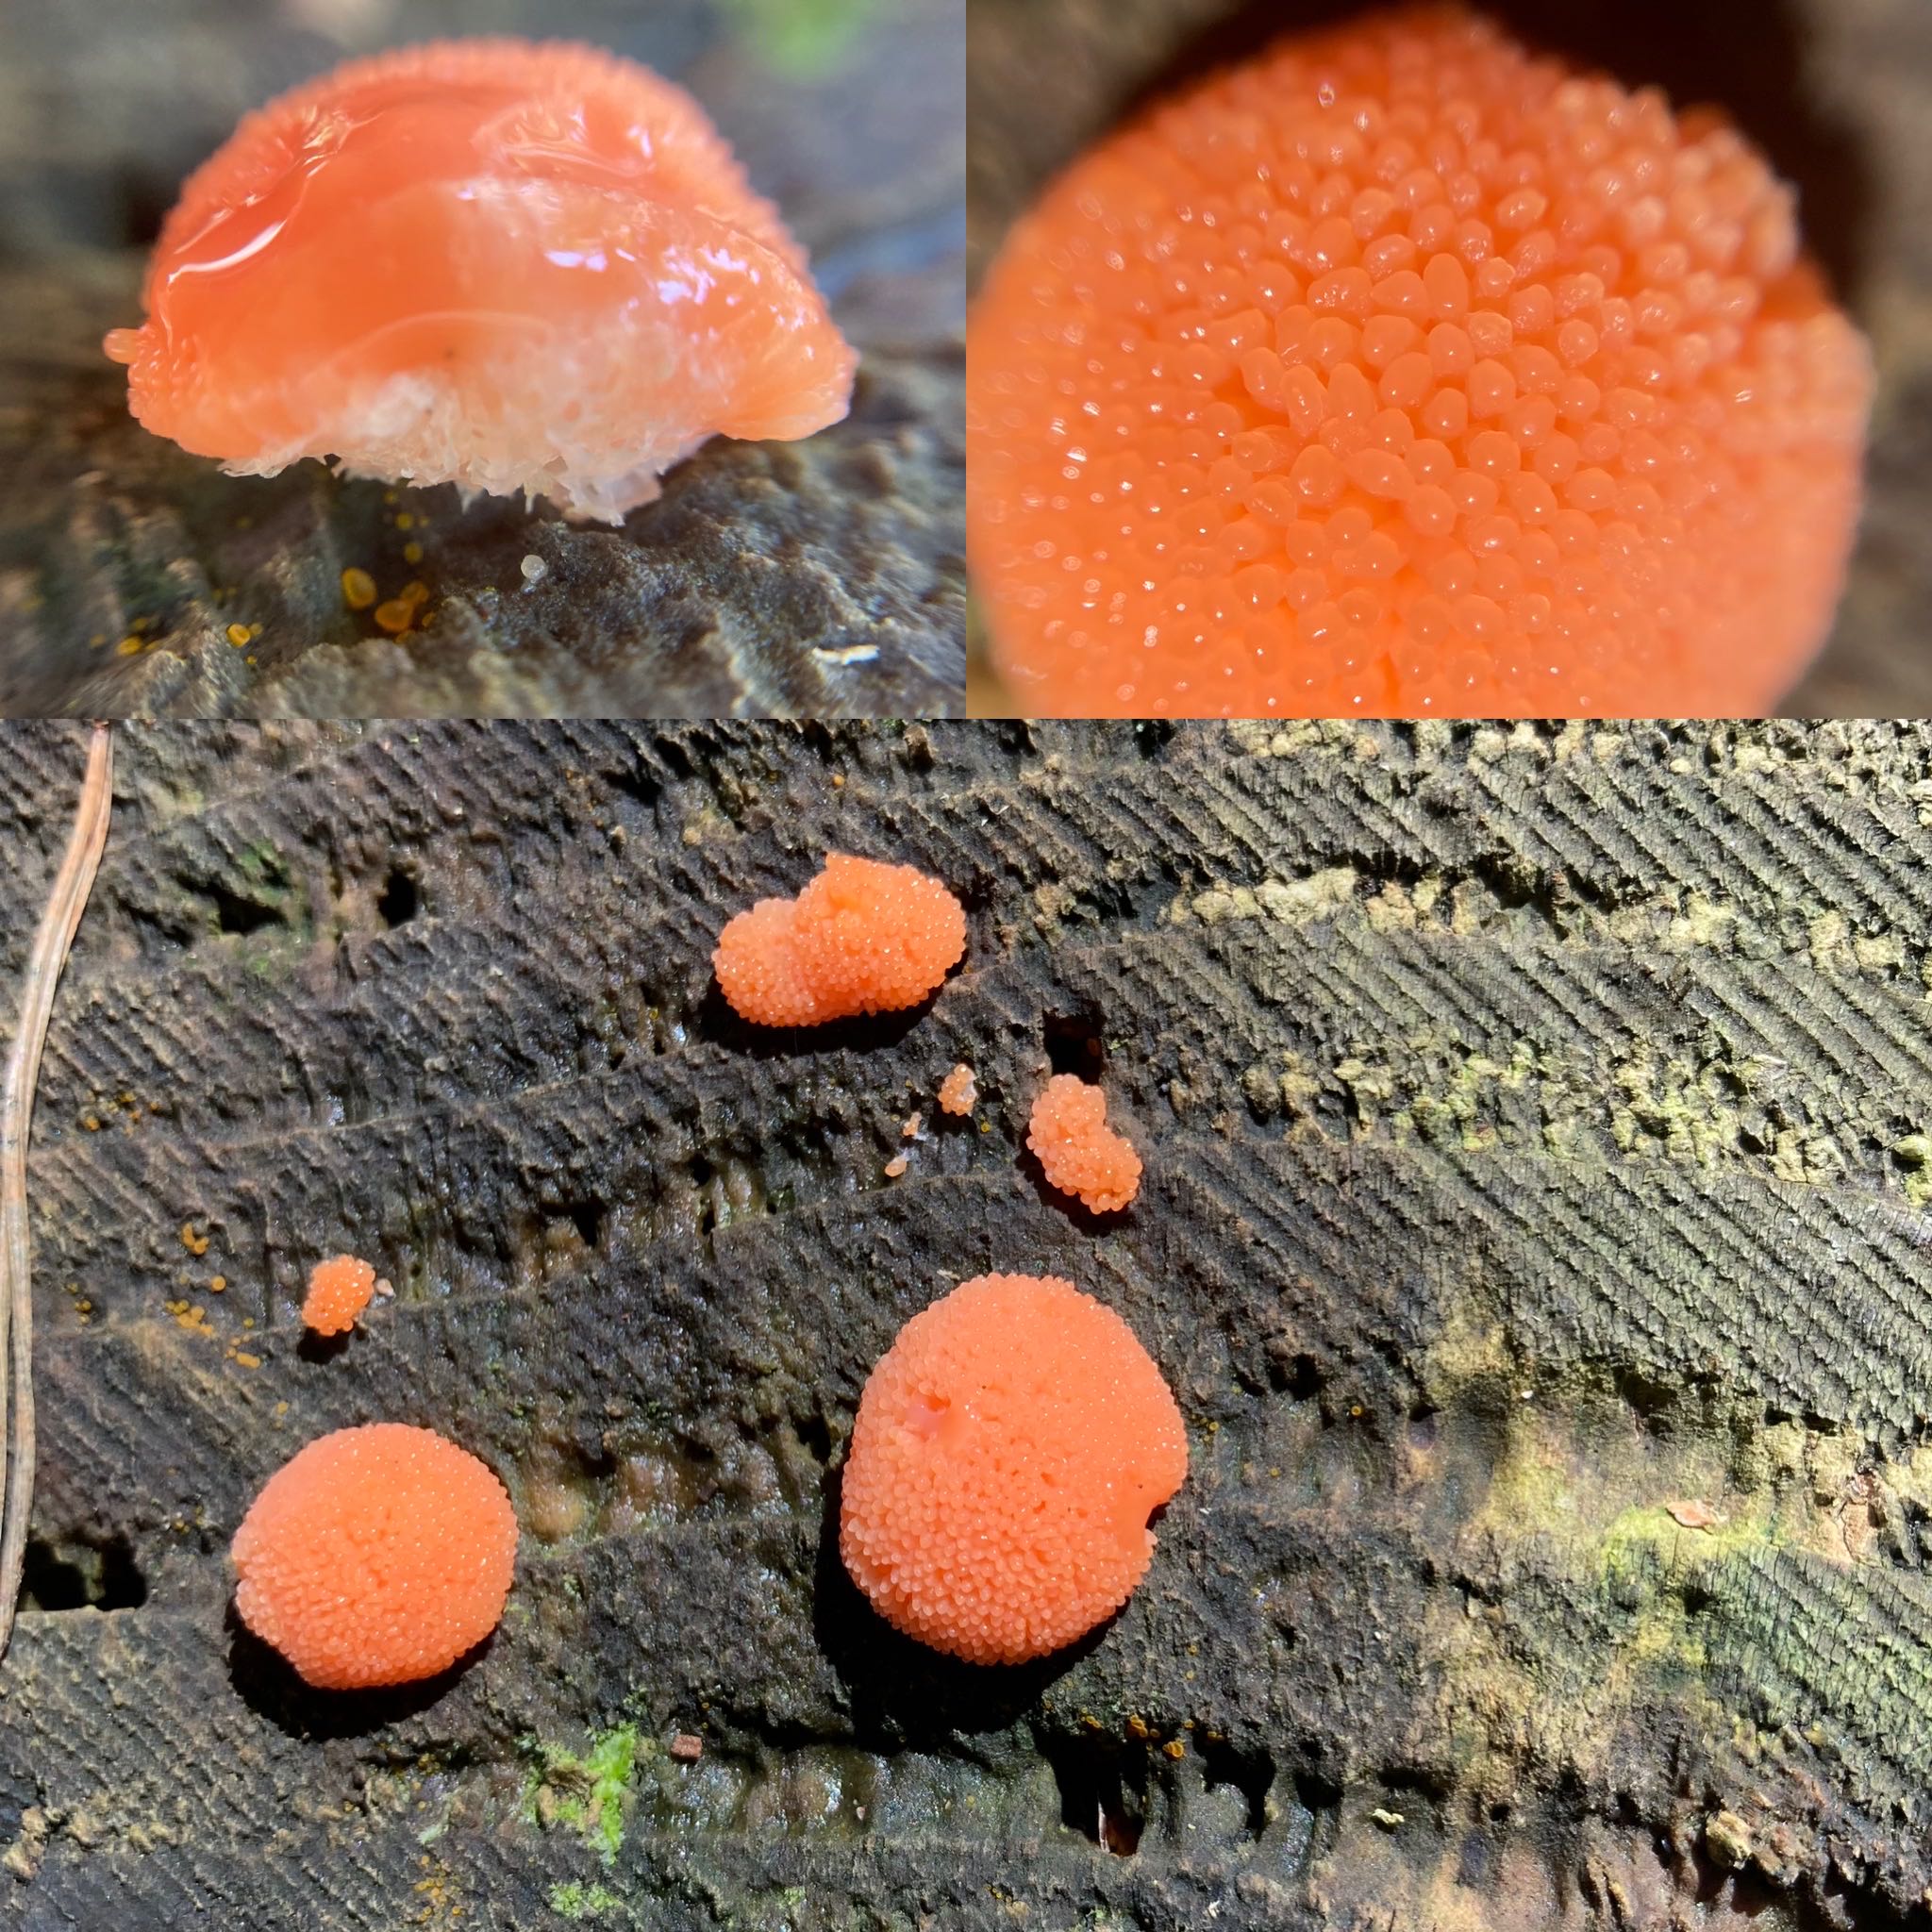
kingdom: Protozoa
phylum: Mycetozoa
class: Myxomycetes
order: Cribrariales
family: Tubiferaceae
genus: Tubifera
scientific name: Tubifera ferruginosa
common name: kanel-støvrør
